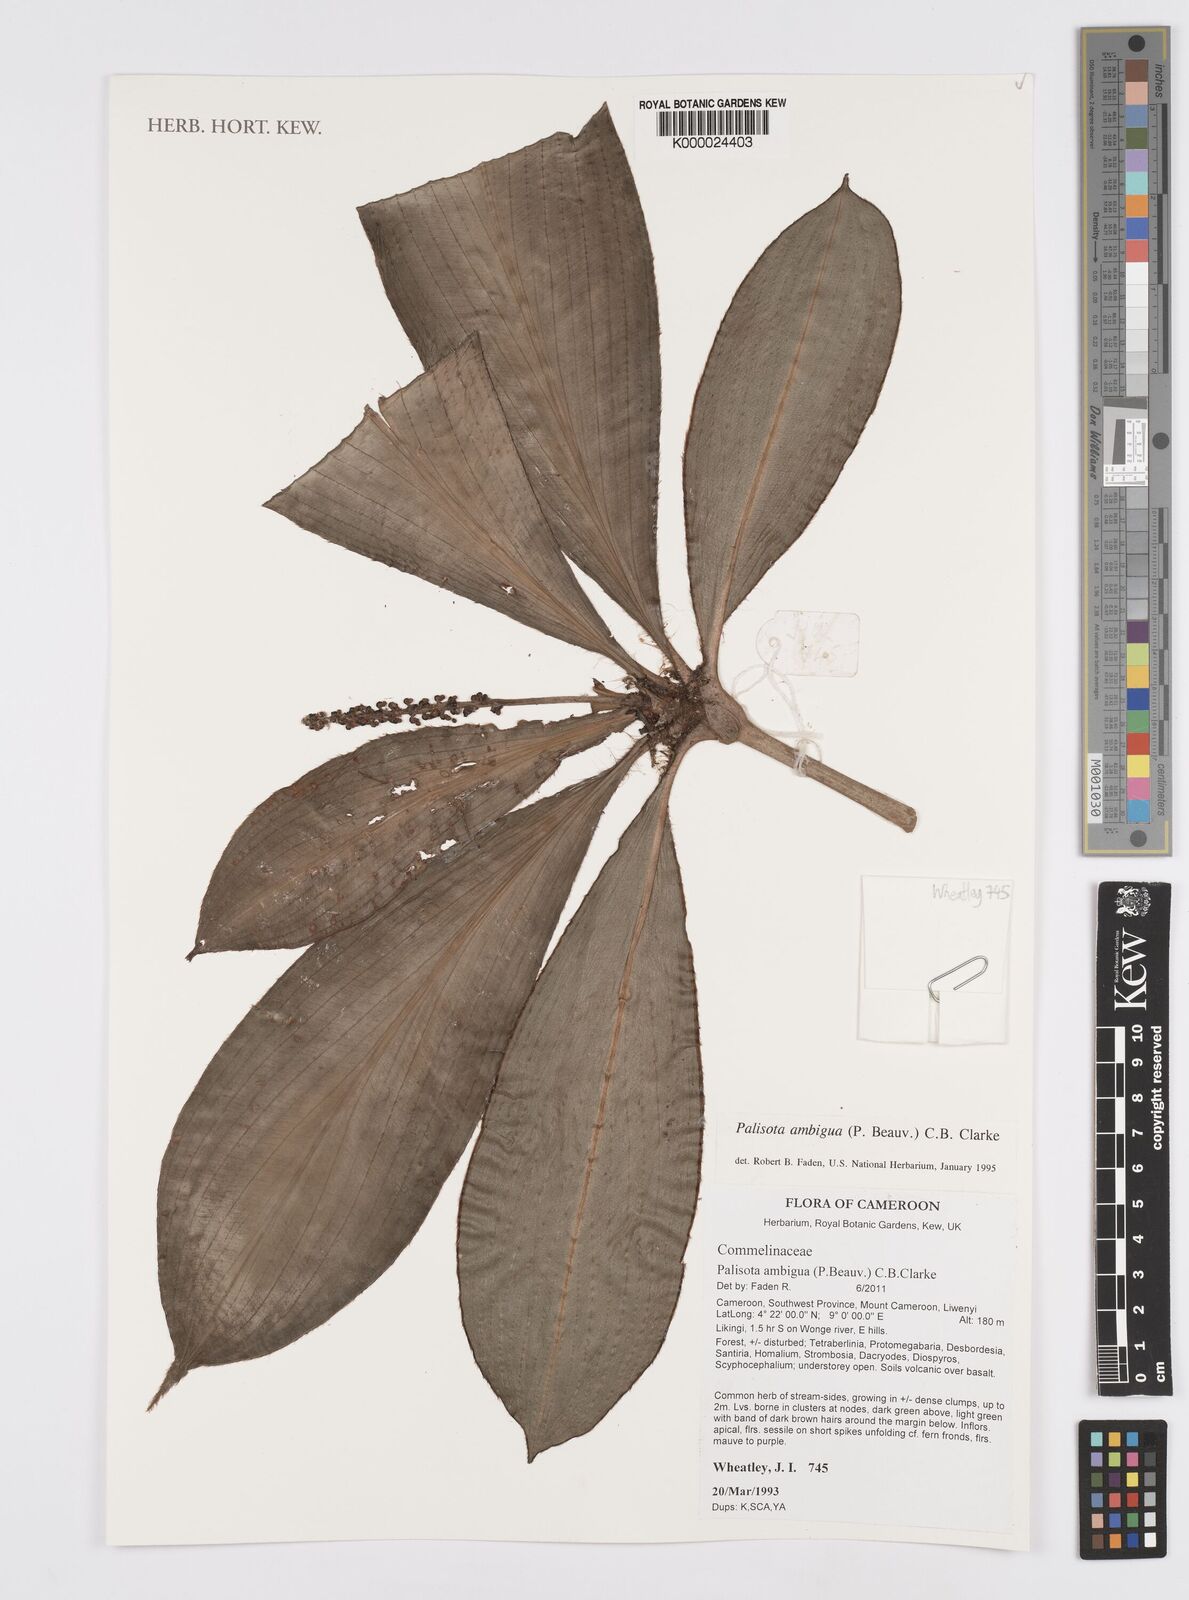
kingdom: Plantae
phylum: Tracheophyta
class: Liliopsida
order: Commelinales
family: Commelinaceae
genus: Palisota
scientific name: Palisota ambigua
